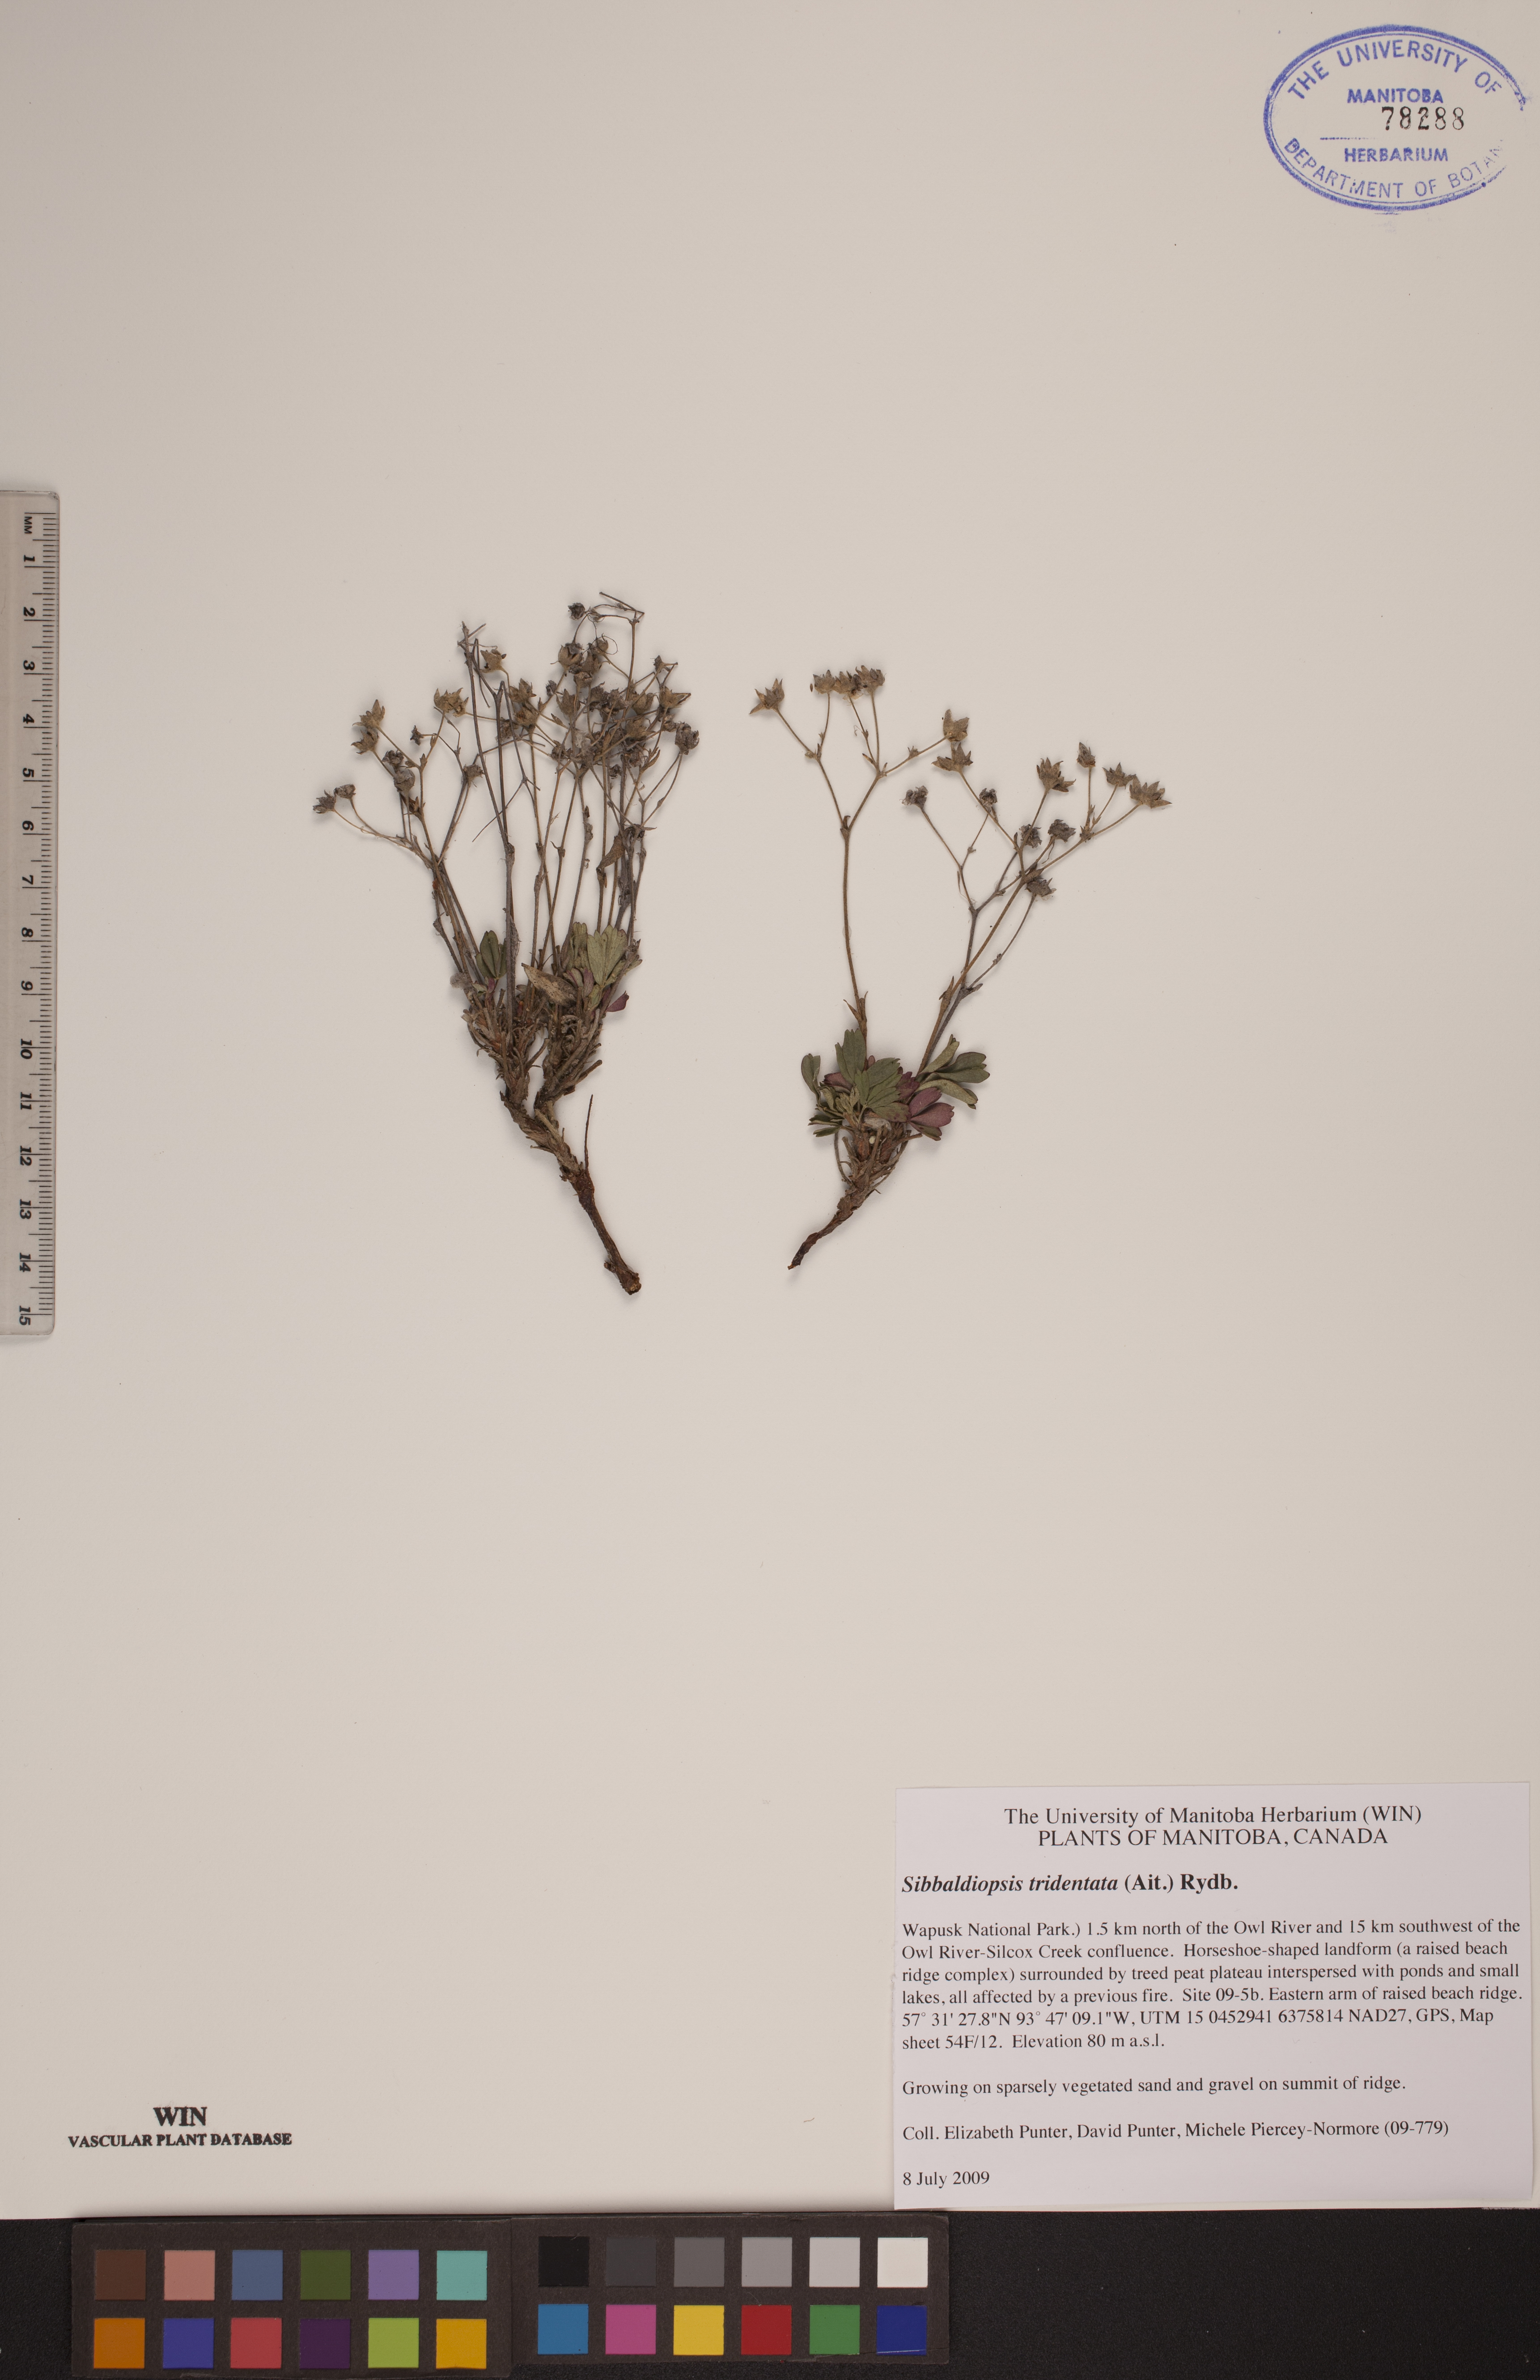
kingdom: Plantae
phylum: Tracheophyta
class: Magnoliopsida
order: Rosales
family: Rosaceae
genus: Sibbaldia
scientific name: Sibbaldia tridentata
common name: Three-toothed cinquefoil
